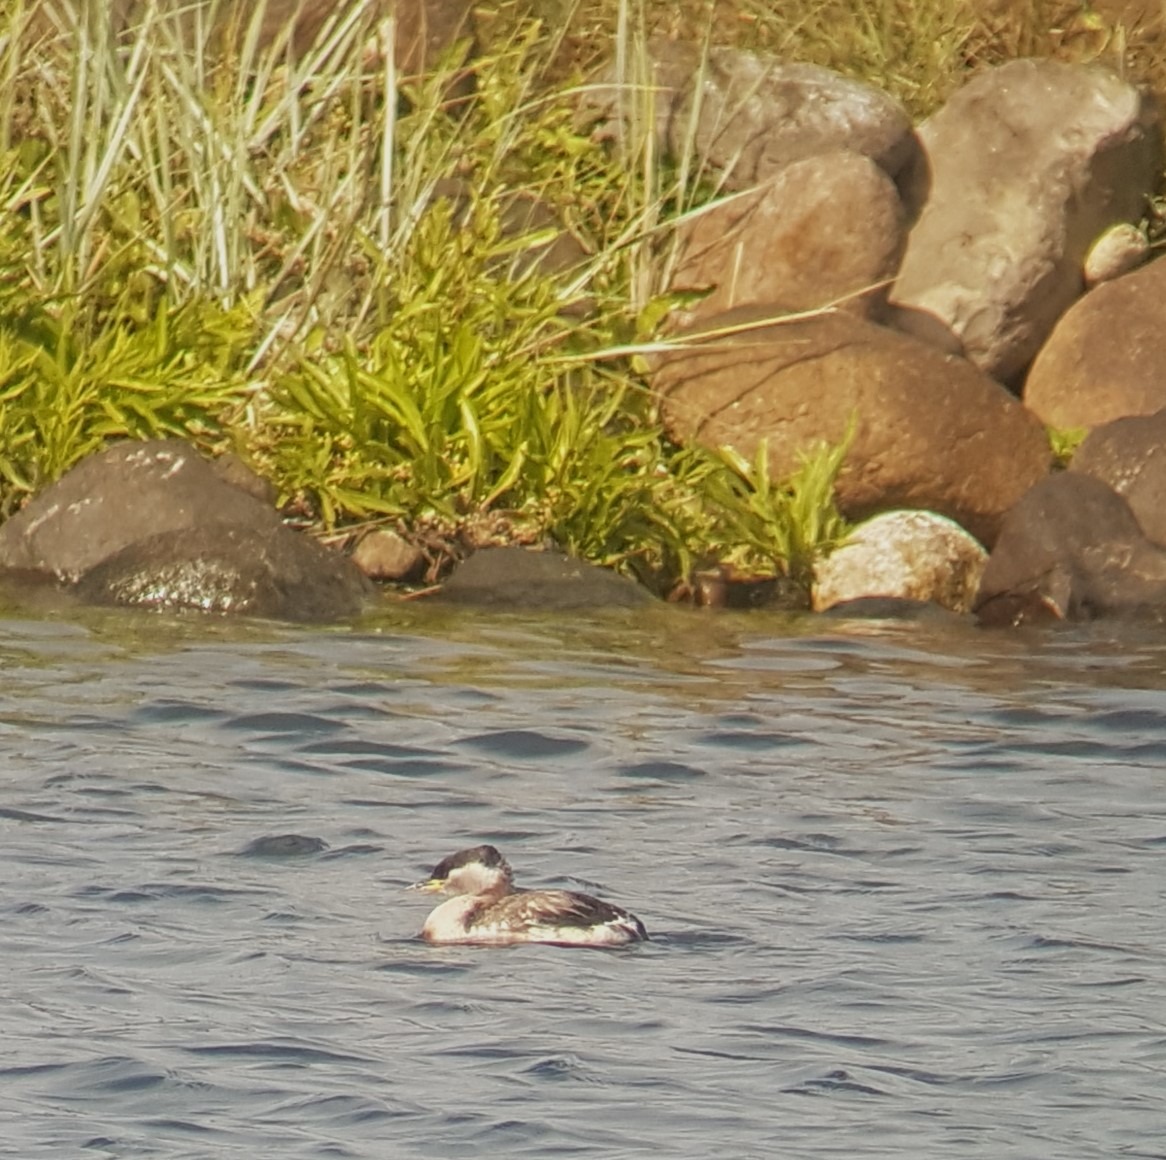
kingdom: Animalia
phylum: Chordata
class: Aves
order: Podicipediformes
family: Podicipedidae
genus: Podiceps
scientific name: Podiceps grisegena
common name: Gråstrubet lappedykker
